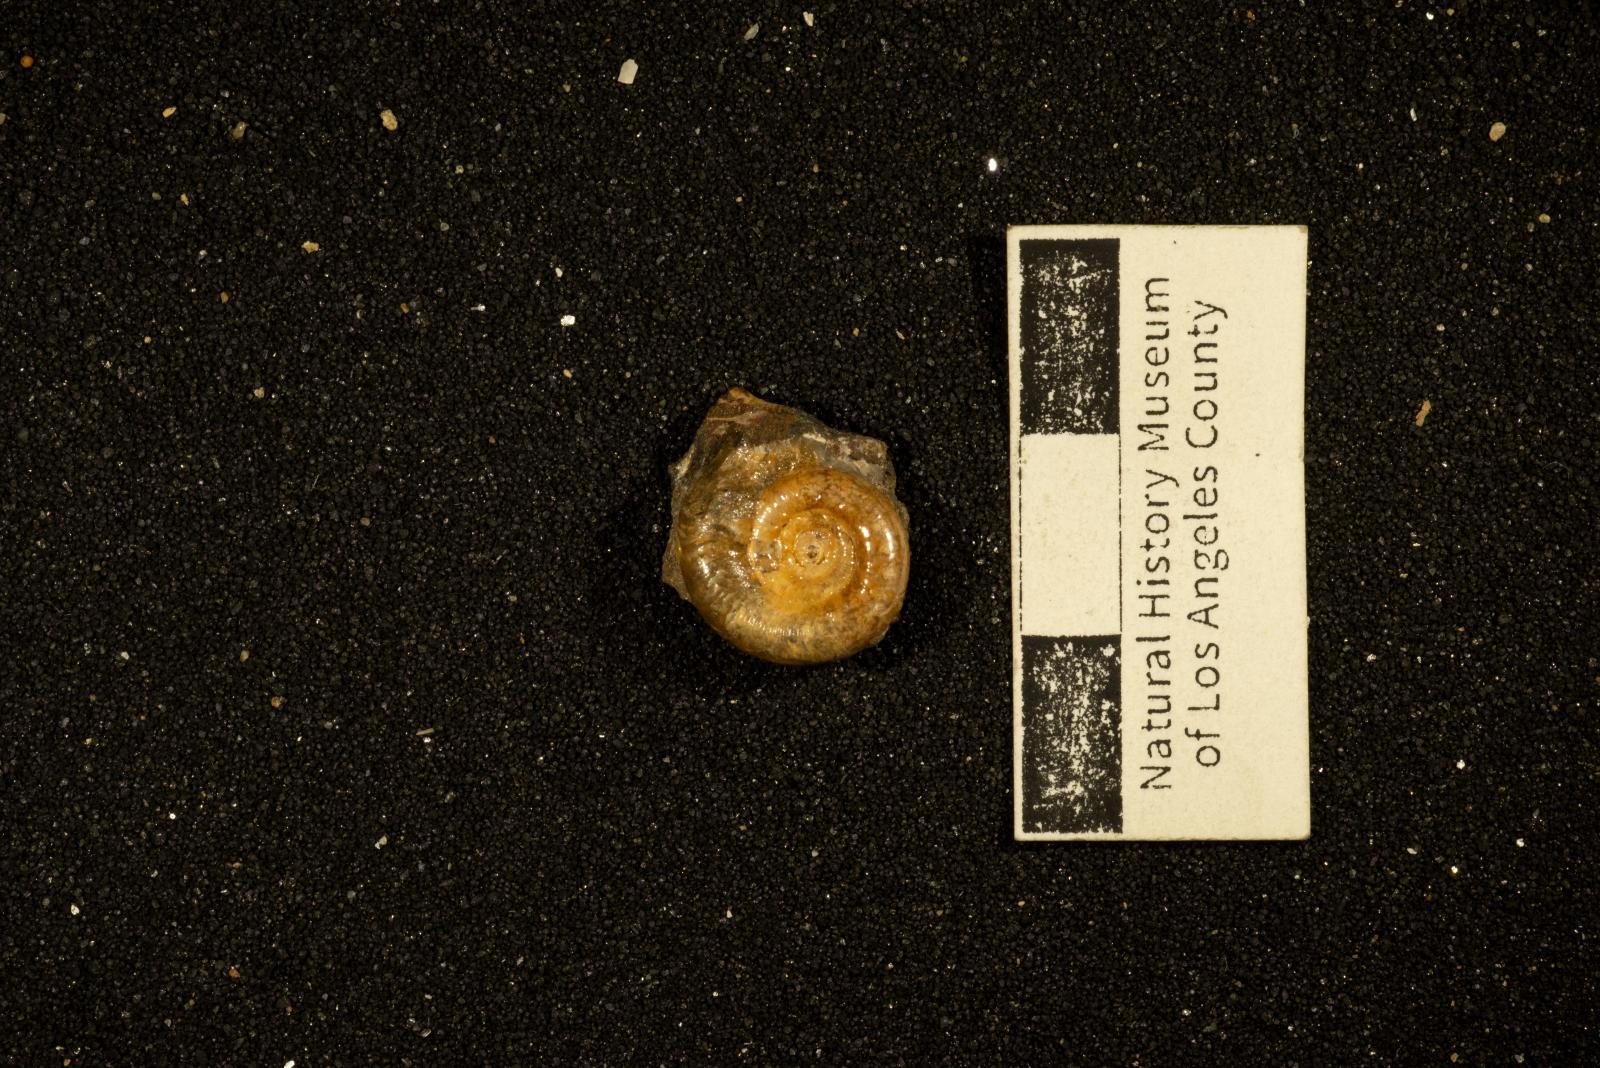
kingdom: Animalia
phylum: Mollusca
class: Cephalopoda
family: Gaudryceratidae
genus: Gaudryceras
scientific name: Gaudryceras kayei
